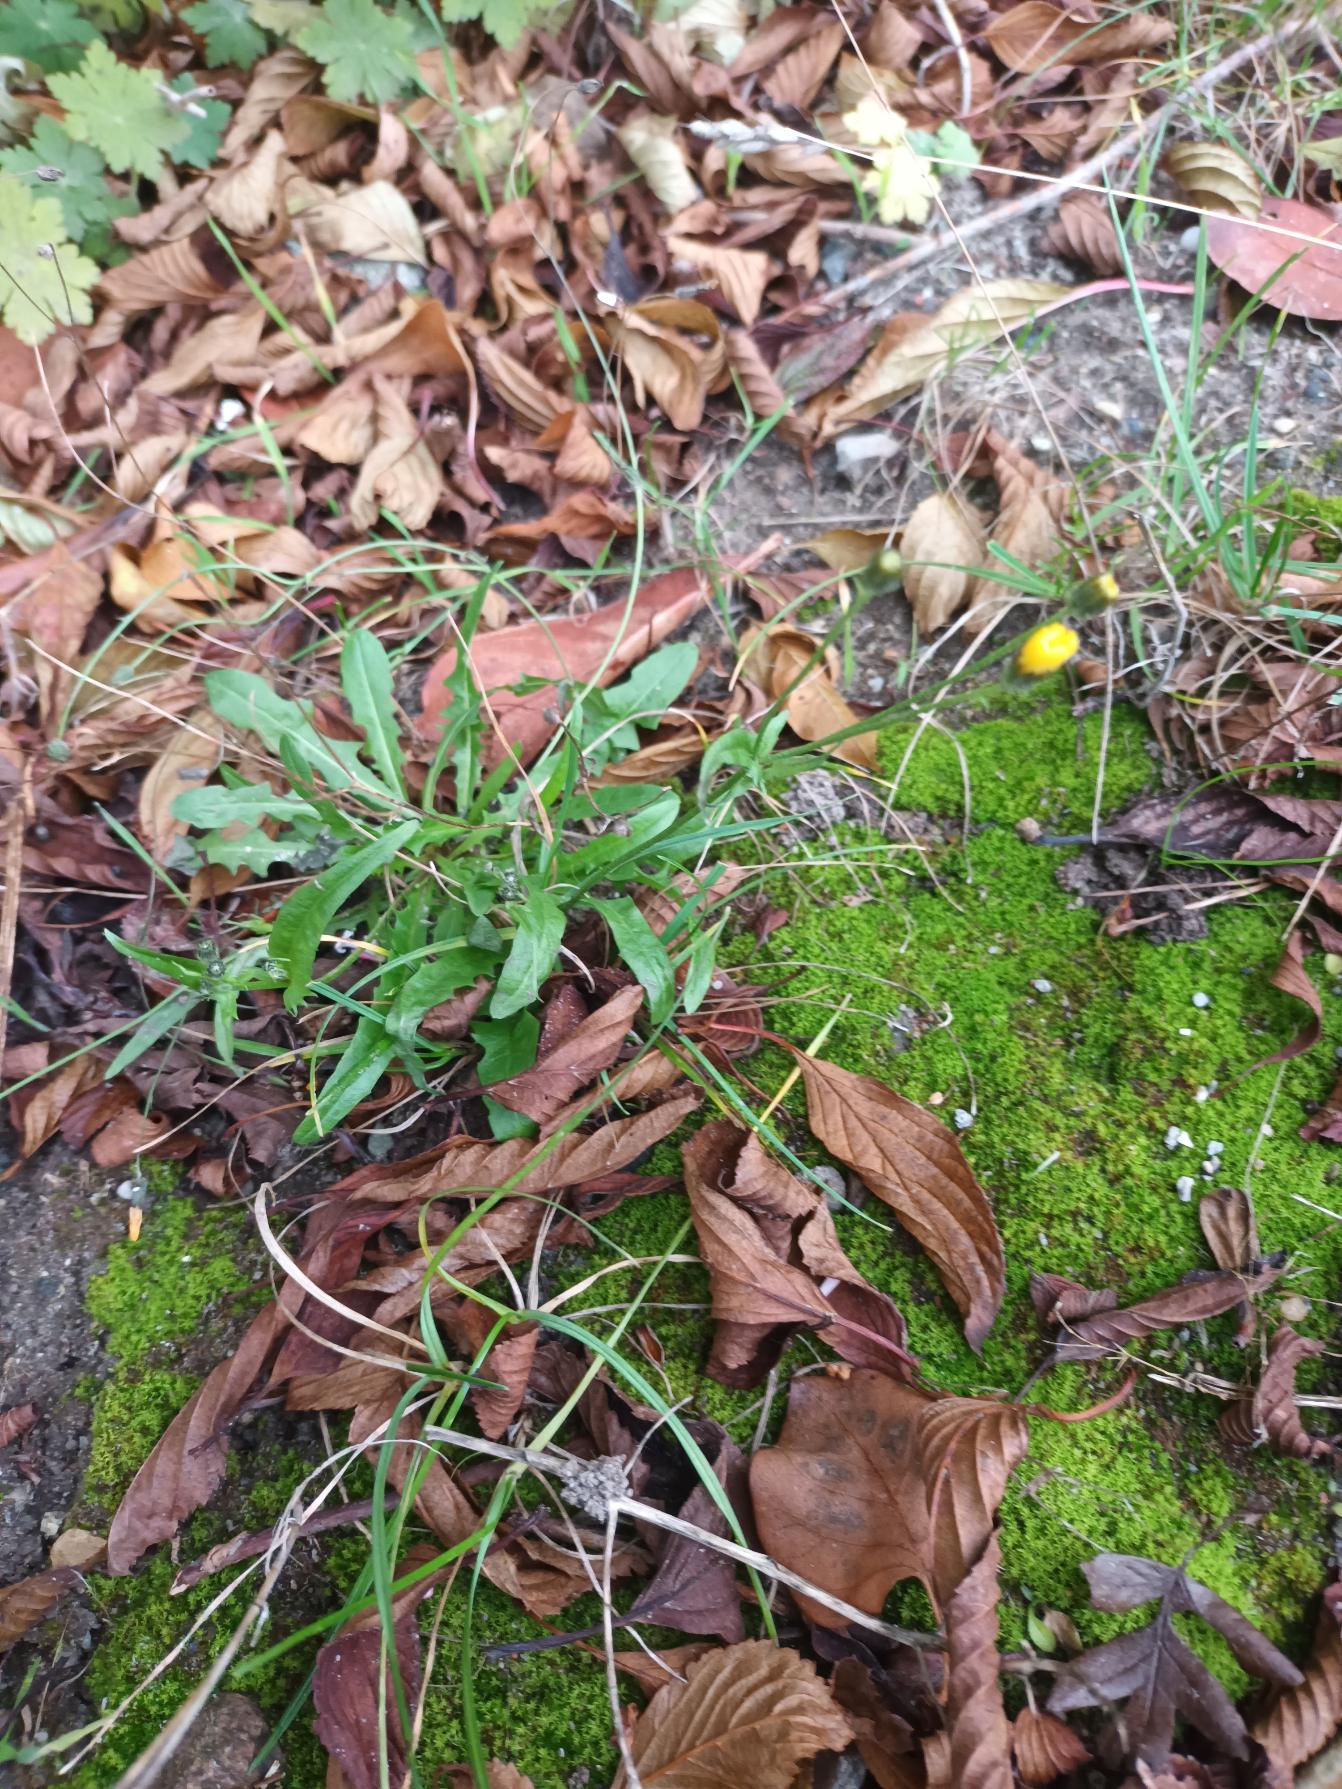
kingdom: Plantae
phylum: Tracheophyta
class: Magnoliopsida
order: Asterales
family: Asteraceae
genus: Crepis
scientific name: Crepis capillaris
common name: Grøn høgeskæg
